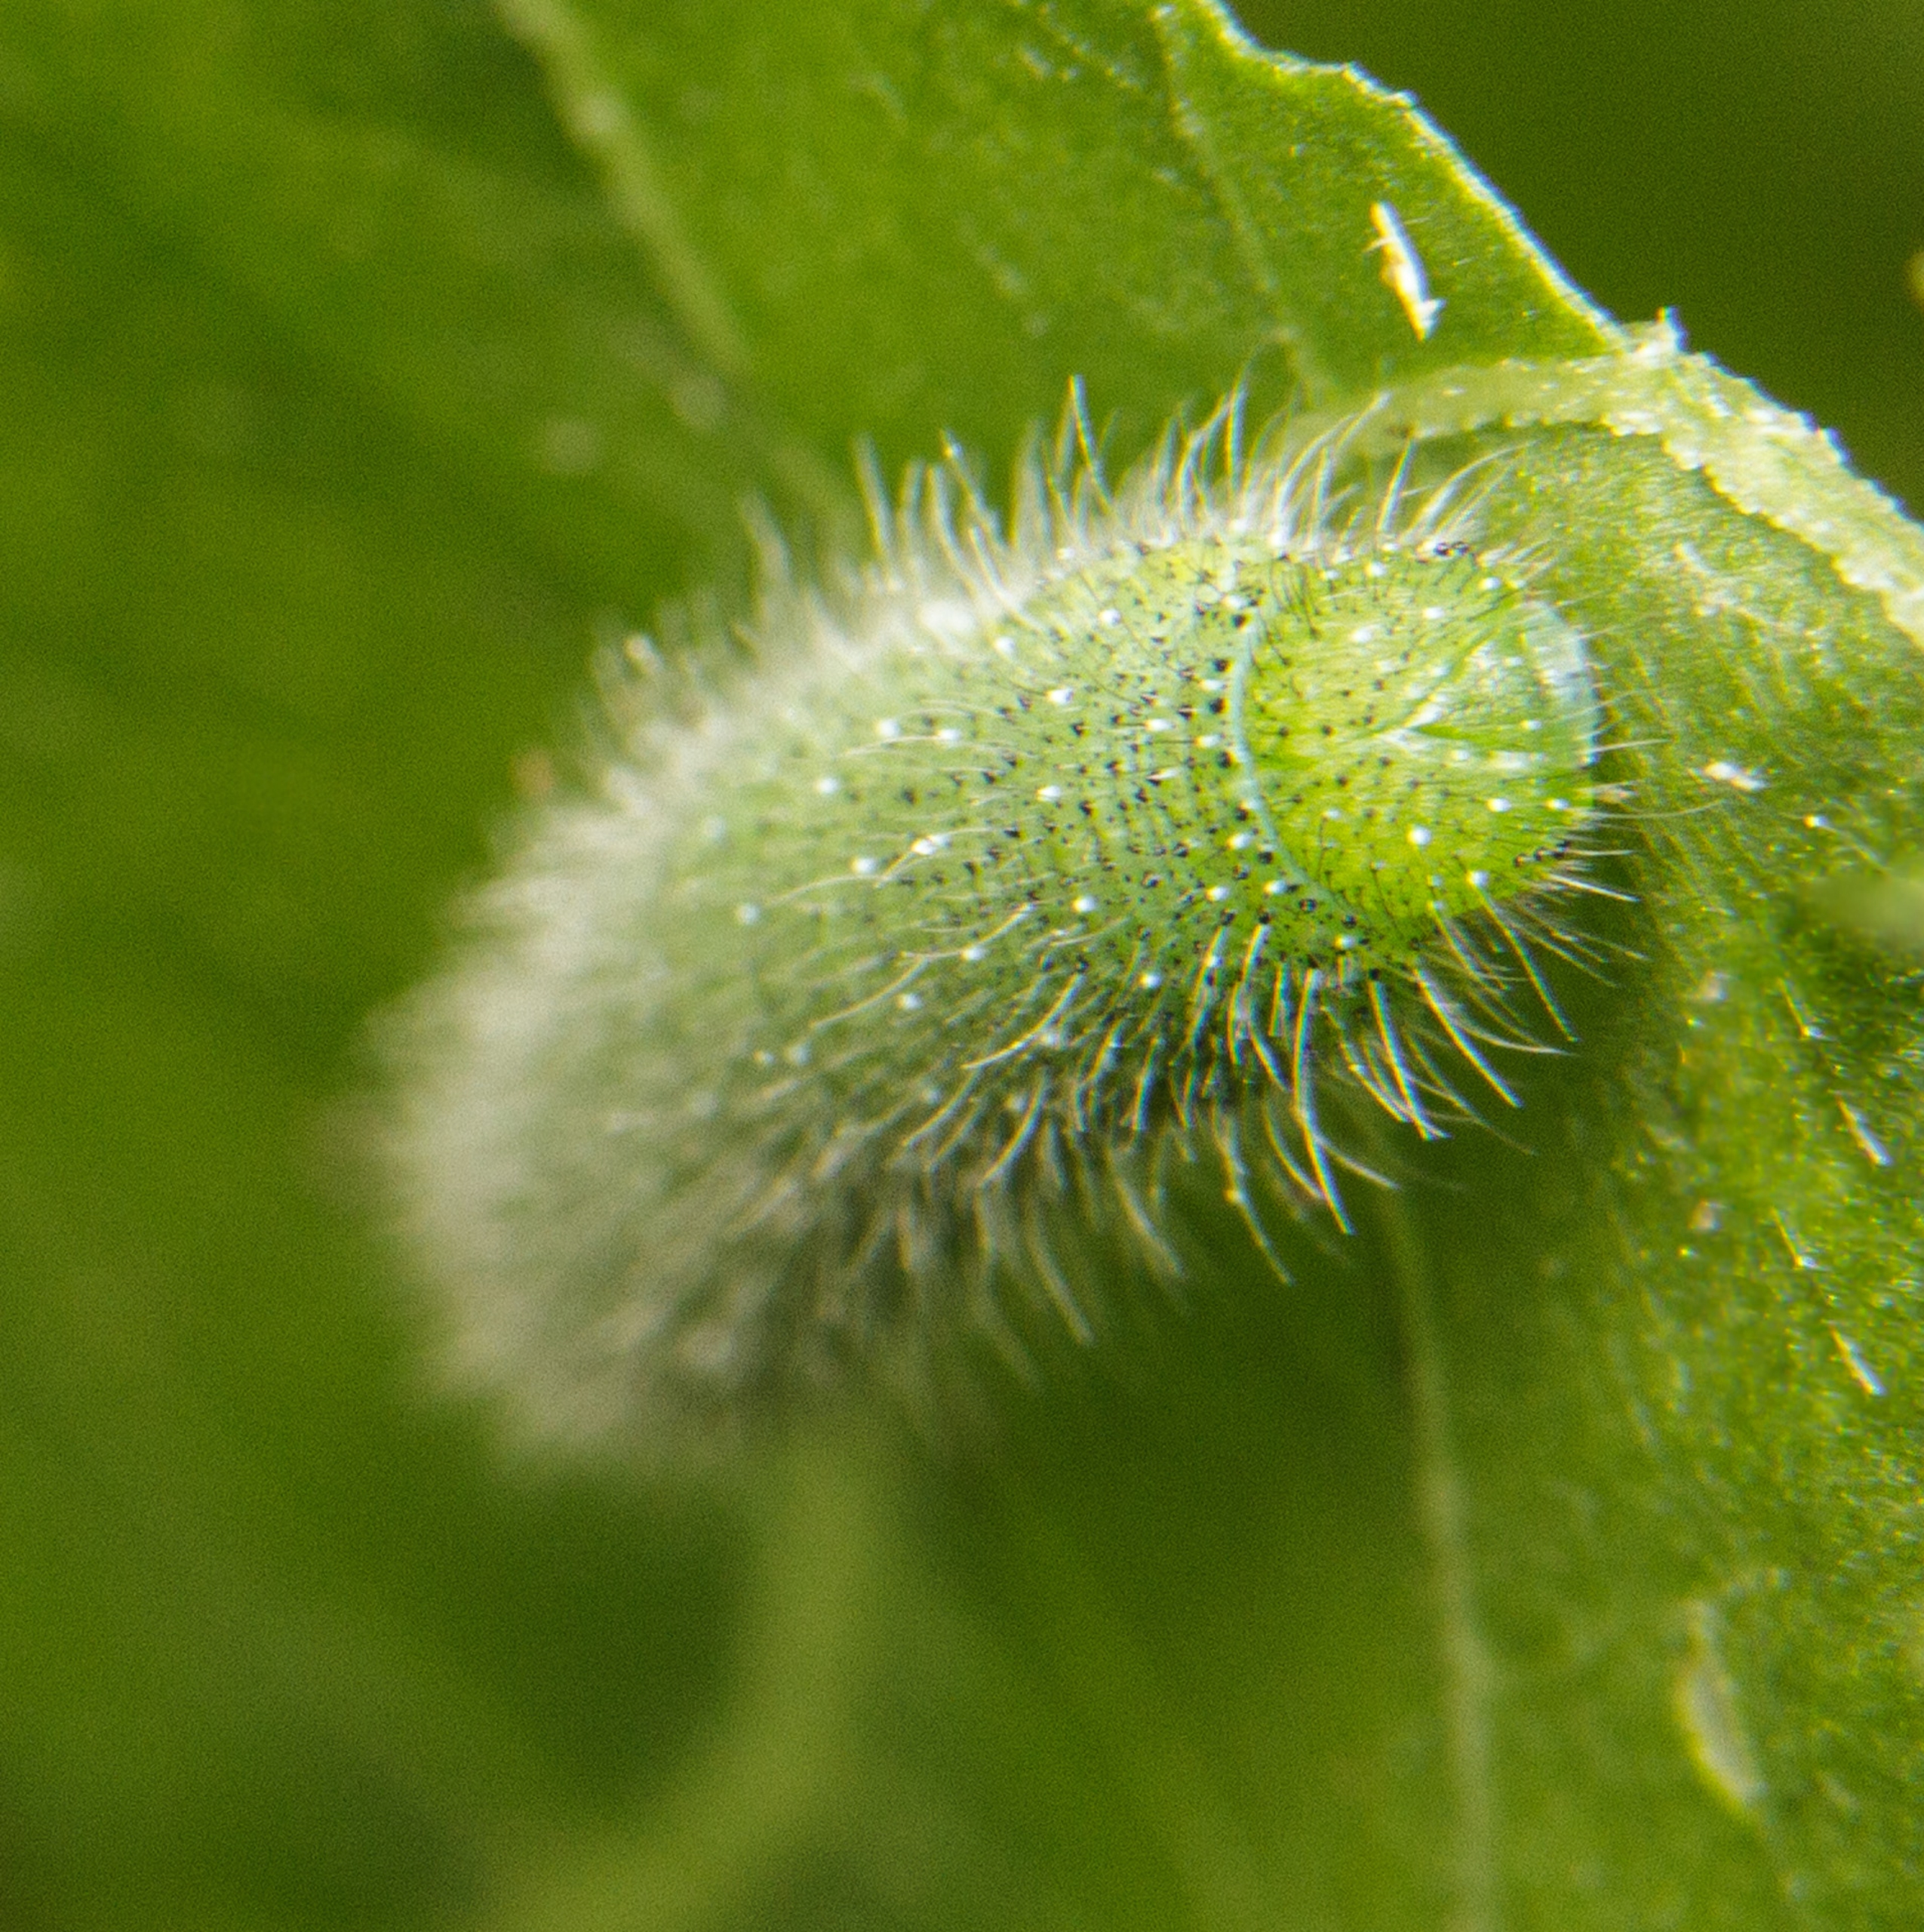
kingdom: Animalia
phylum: Arthropoda
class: Insecta
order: Lepidoptera
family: Pieridae
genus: Pieris
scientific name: Pieris napi
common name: Grønåret kålsommerfugl
